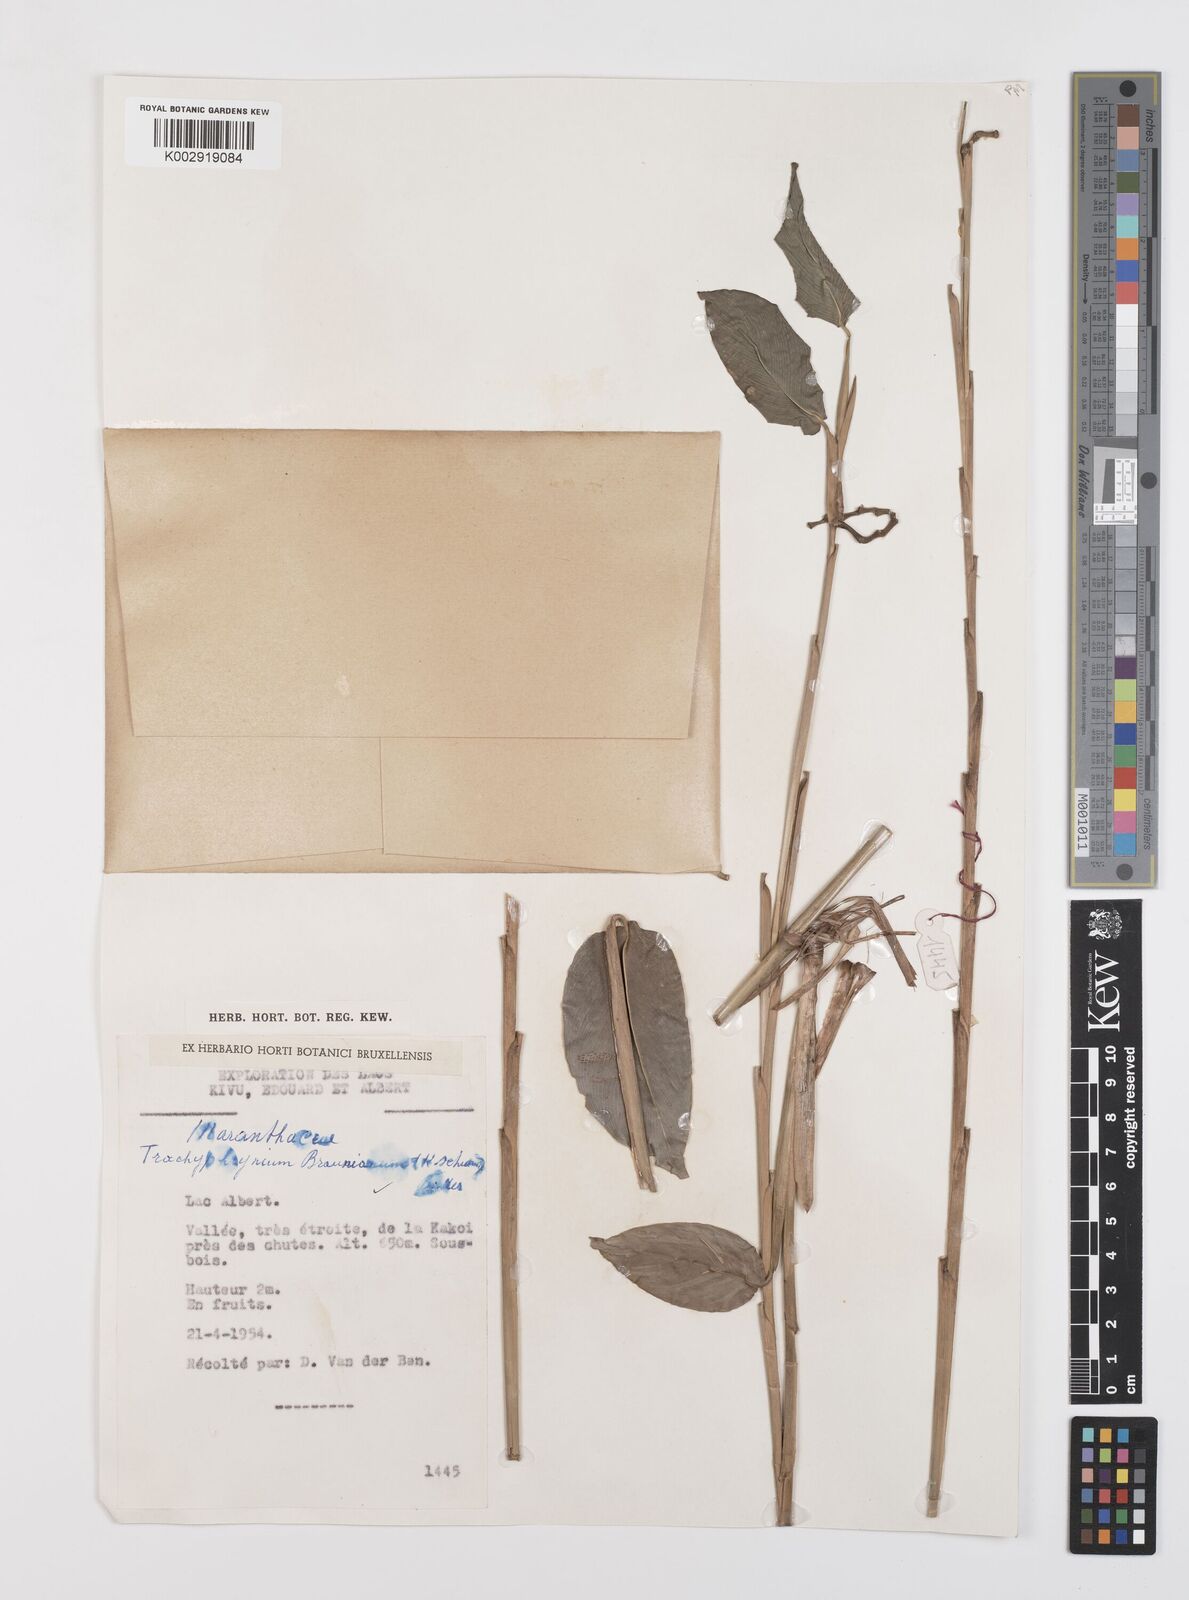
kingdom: Plantae
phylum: Tracheophyta
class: Liliopsida
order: Zingiberales
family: Marantaceae
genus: Trachyphrynium
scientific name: Trachyphrynium braunianum
